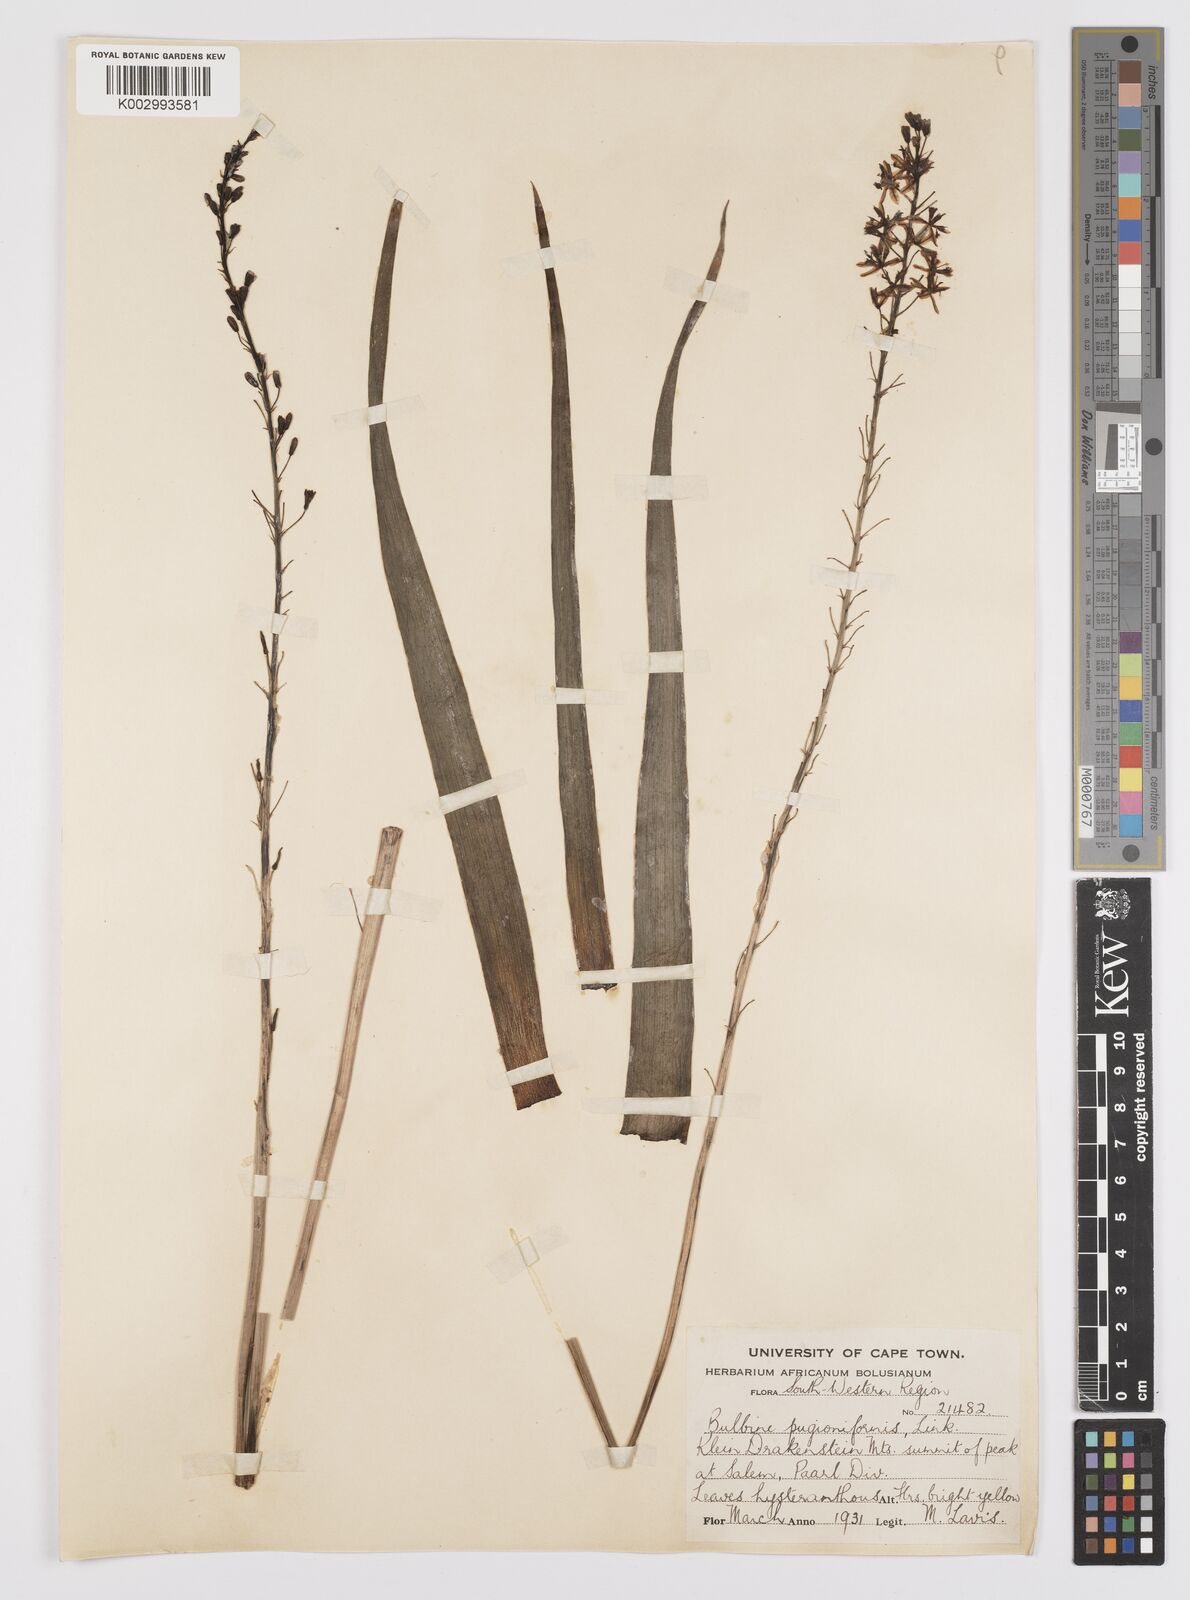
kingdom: Plantae
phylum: Tracheophyta
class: Liliopsida
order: Asparagales
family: Asphodelaceae
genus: Bulbine
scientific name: Bulbine cepacea
